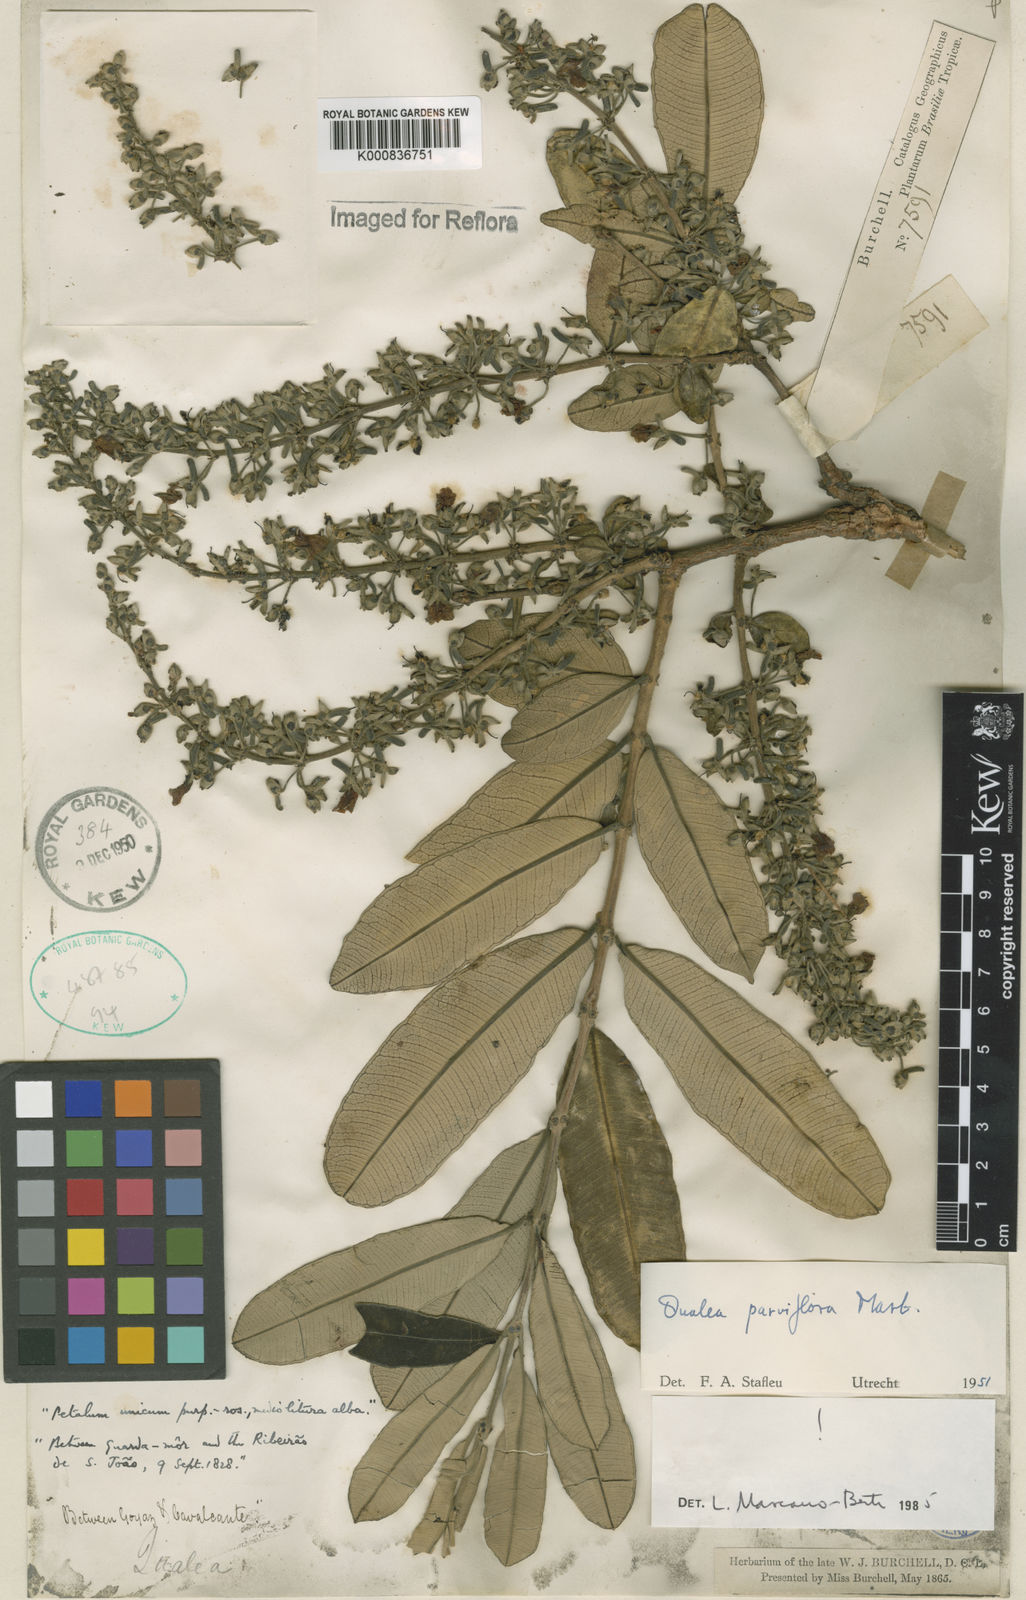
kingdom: Plantae
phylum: Tracheophyta
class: Magnoliopsida
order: Myrtales
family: Vochysiaceae
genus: Qualea
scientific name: Qualea parviflora
